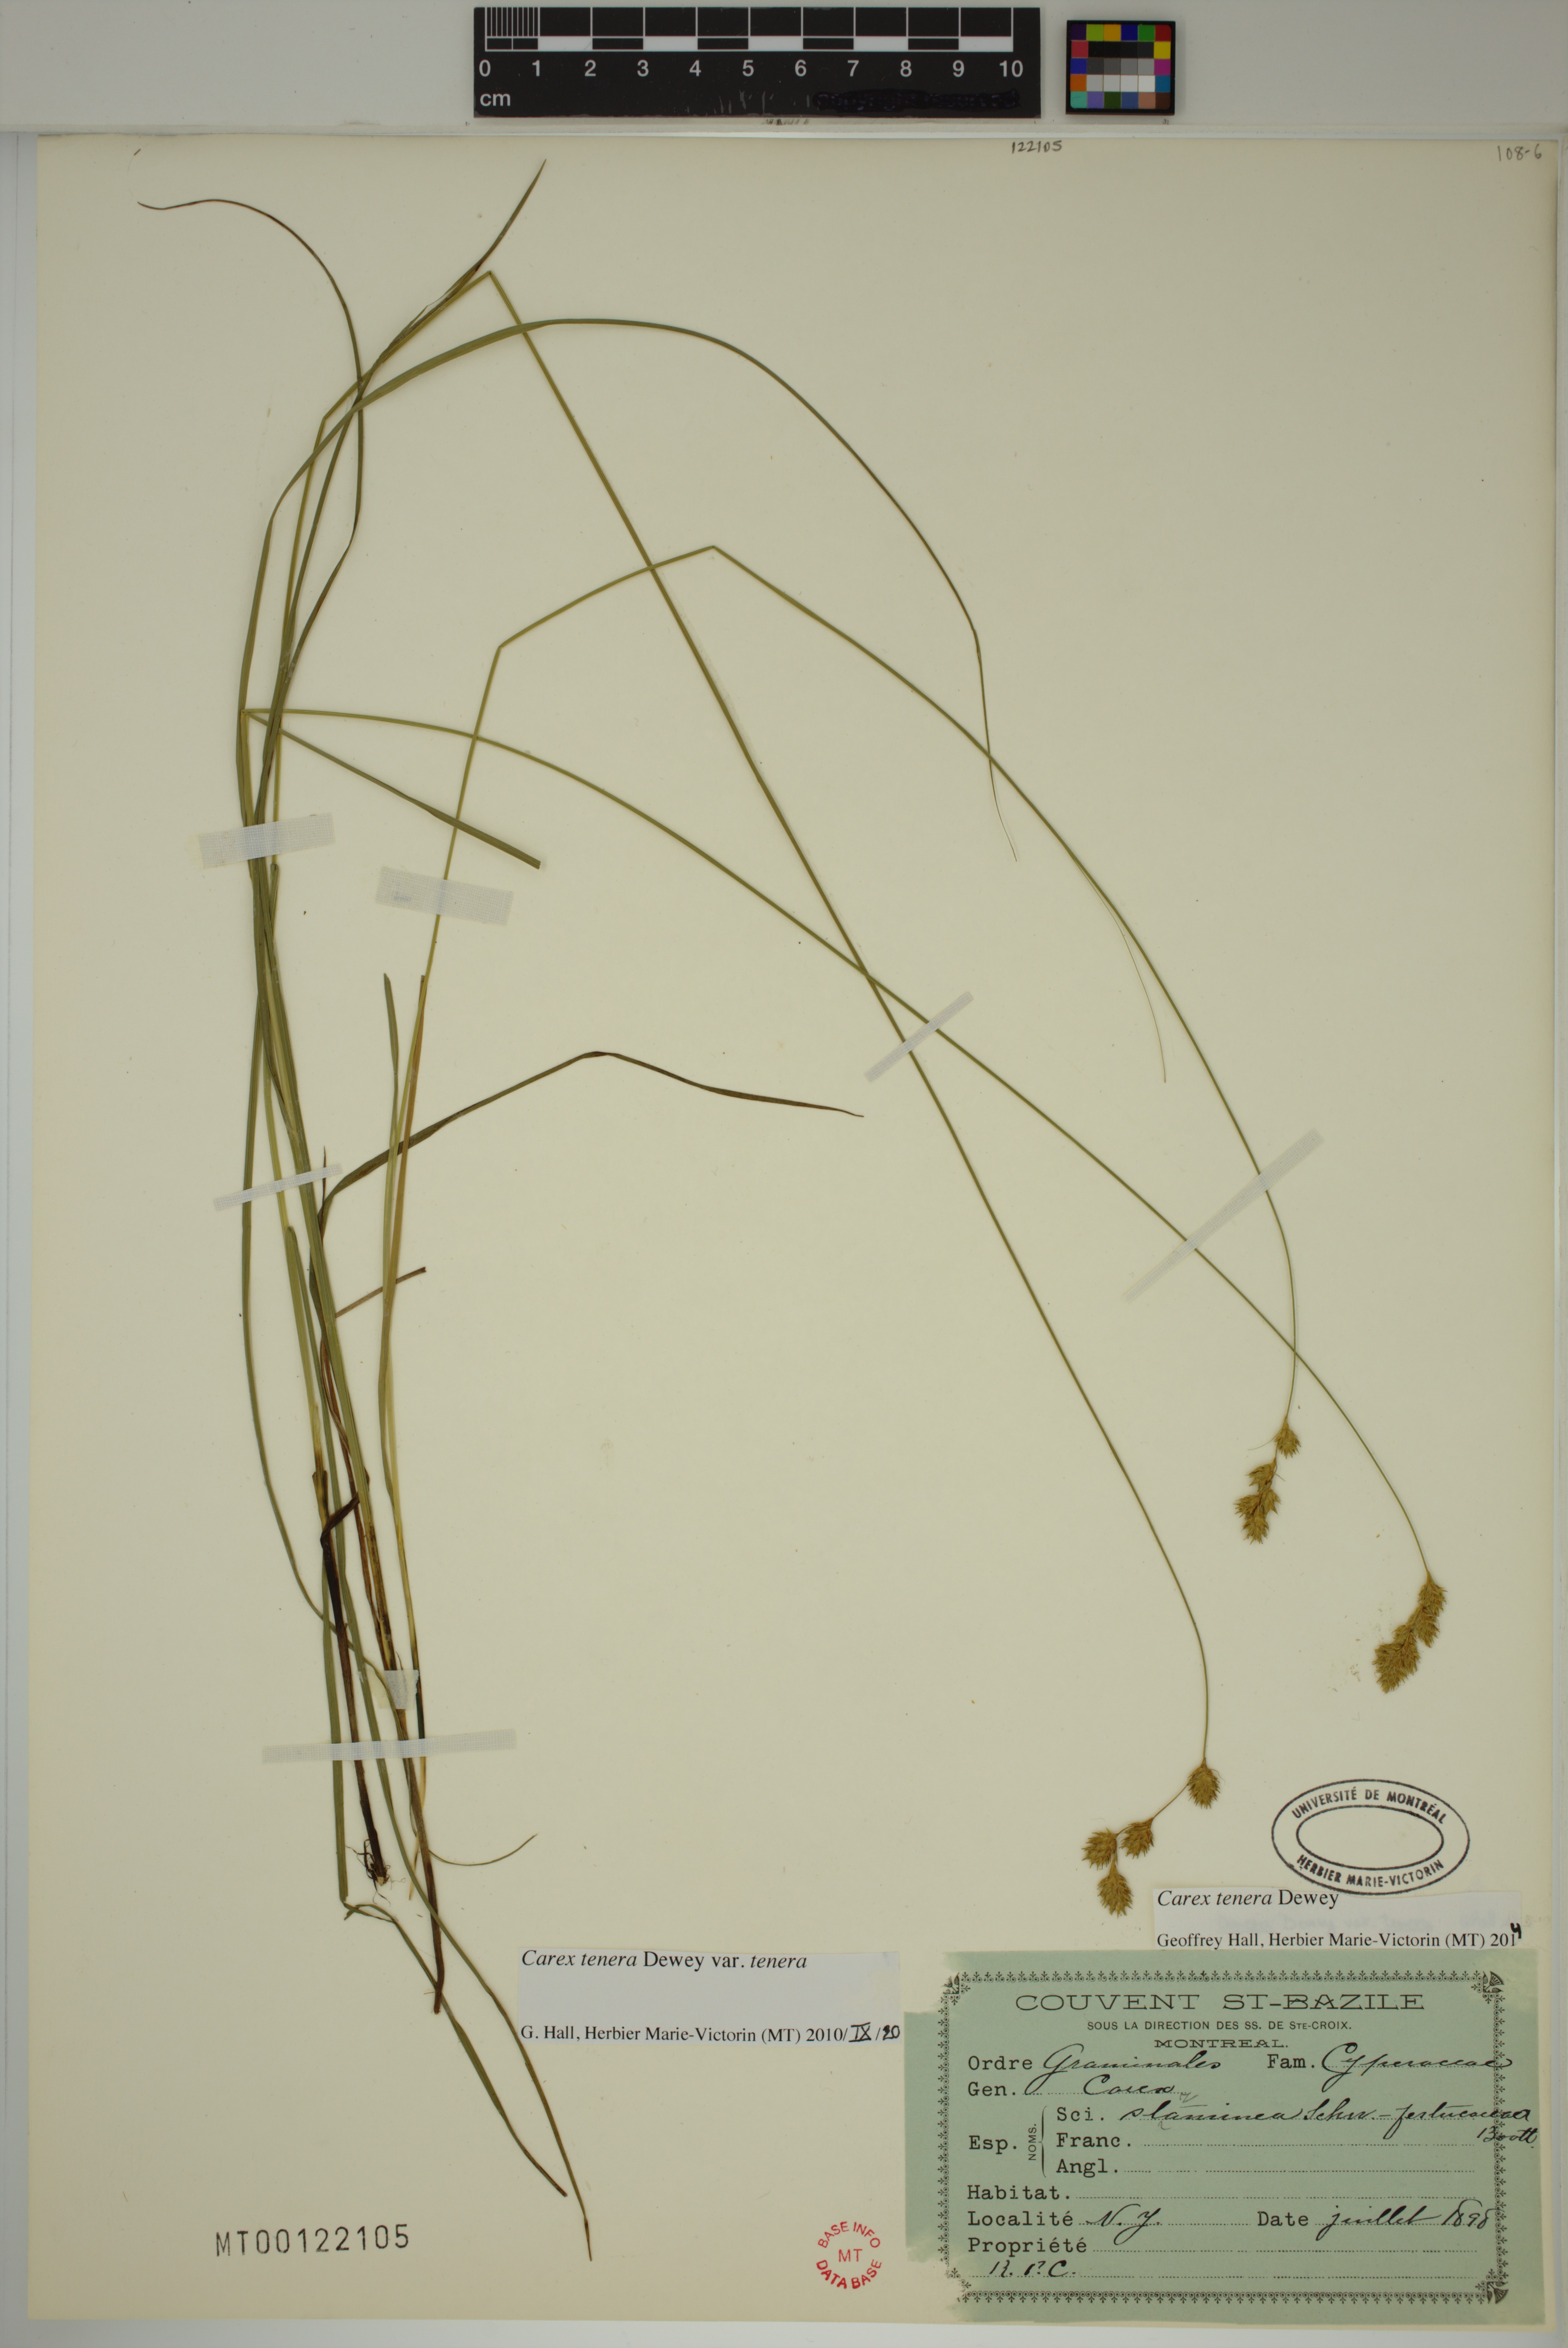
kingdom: Plantae
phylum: Tracheophyta
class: Liliopsida
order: Poales
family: Cyperaceae
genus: Carex
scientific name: Carex tenera
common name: Broad-fruited sedge
